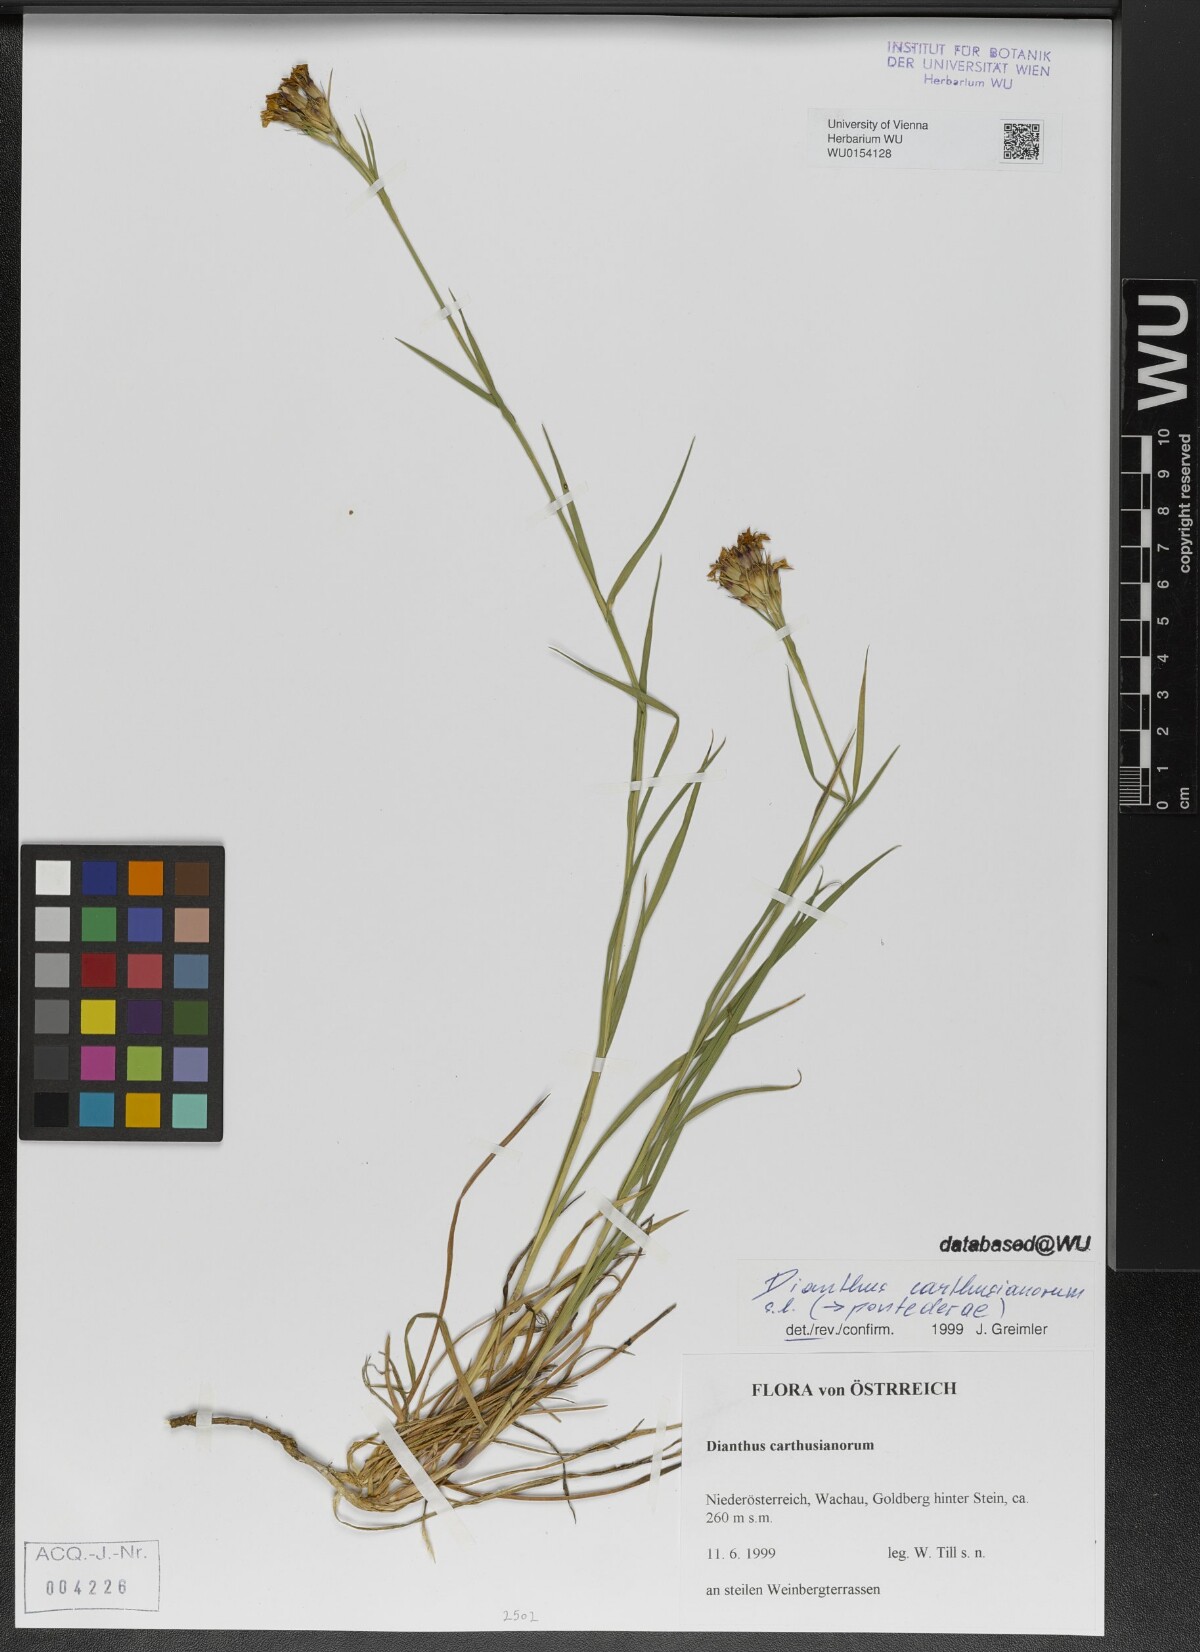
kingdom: Plantae
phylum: Tracheophyta
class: Magnoliopsida
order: Caryophyllales
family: Caryophyllaceae
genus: Dianthus
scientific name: Dianthus carthusianorum
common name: Carthusian pink
